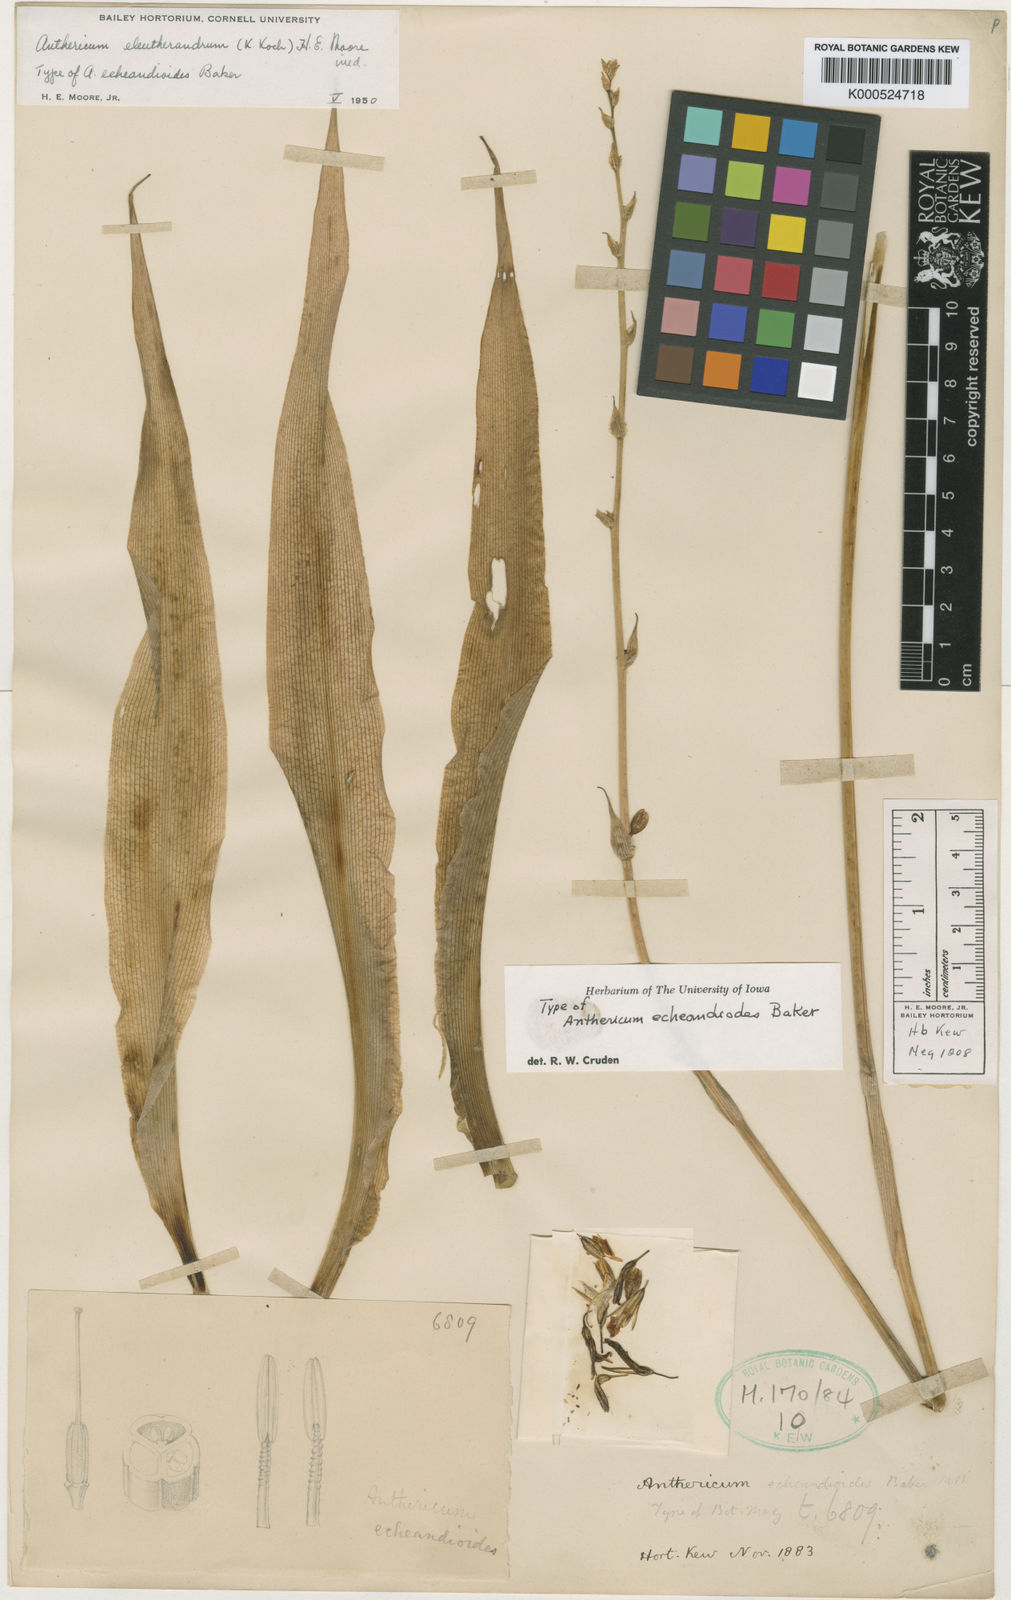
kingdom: Plantae
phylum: Tracheophyta
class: Liliopsida
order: Asparagales
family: Asparagaceae
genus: Echeandia
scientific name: Echeandia echeandioides
